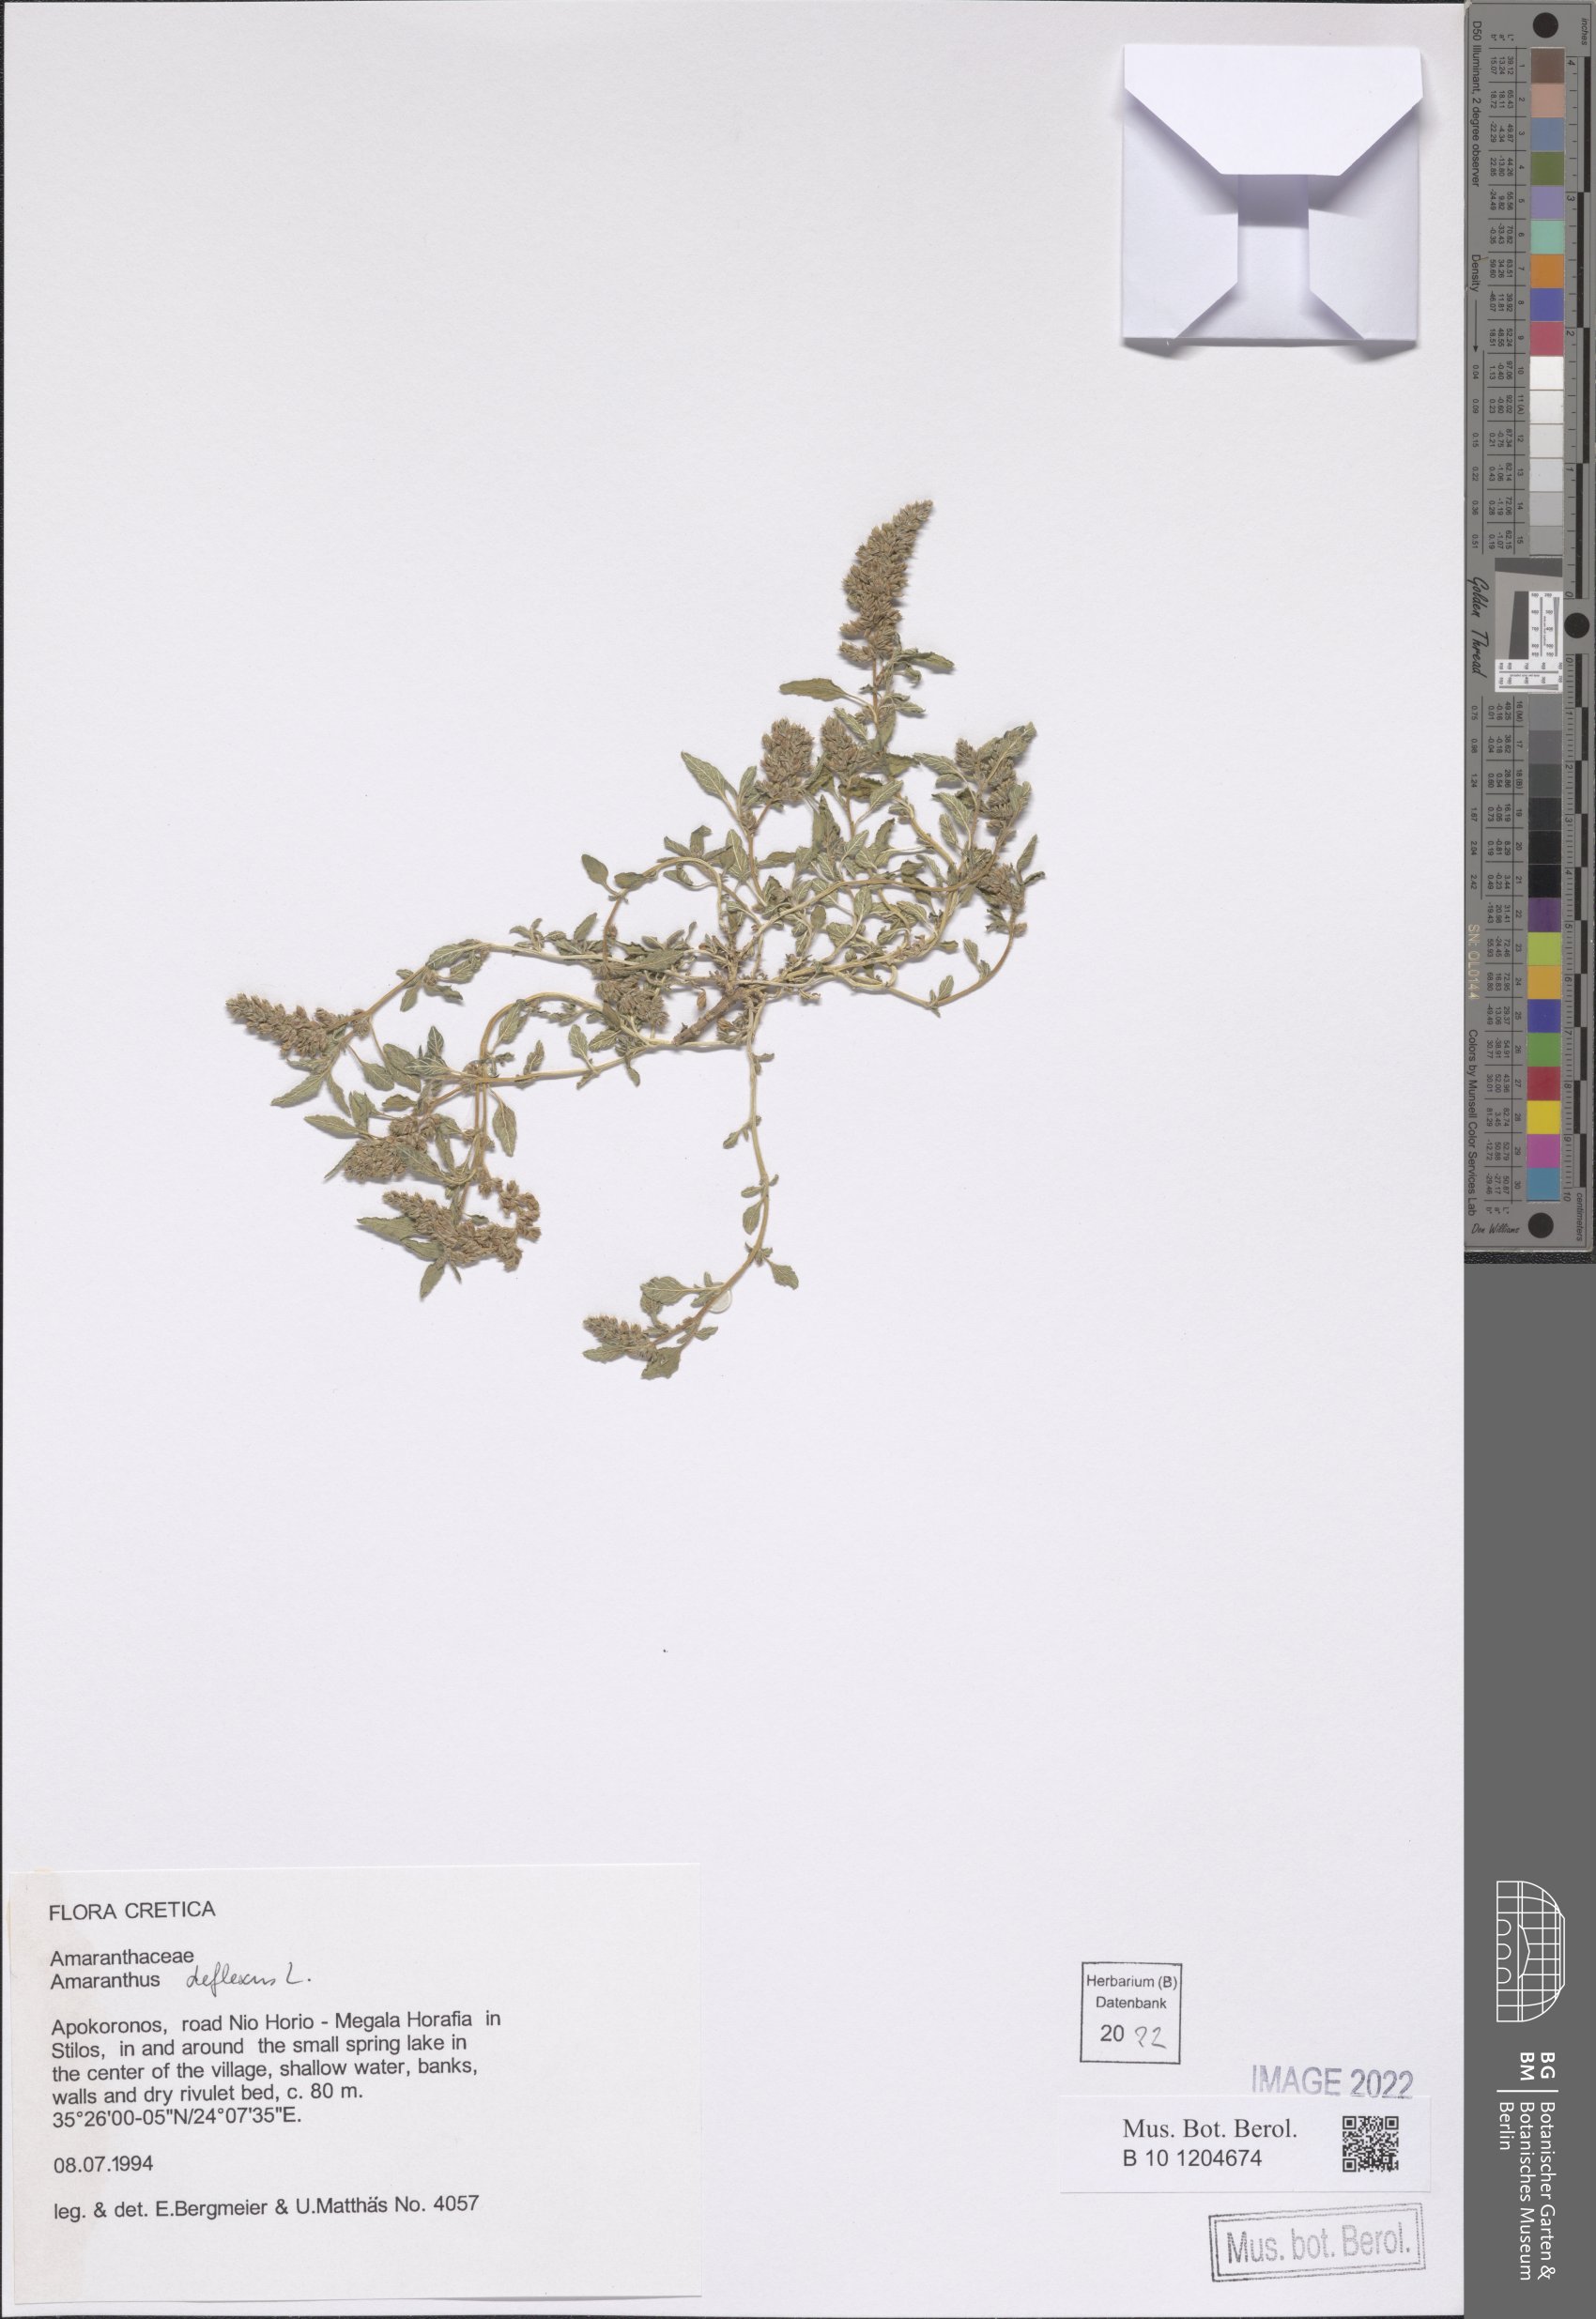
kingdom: Plantae
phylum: Tracheophyta
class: Magnoliopsida
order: Caryophyllales
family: Amaranthaceae
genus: Amaranthus
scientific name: Amaranthus deflexus
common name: Perennial pigweed
